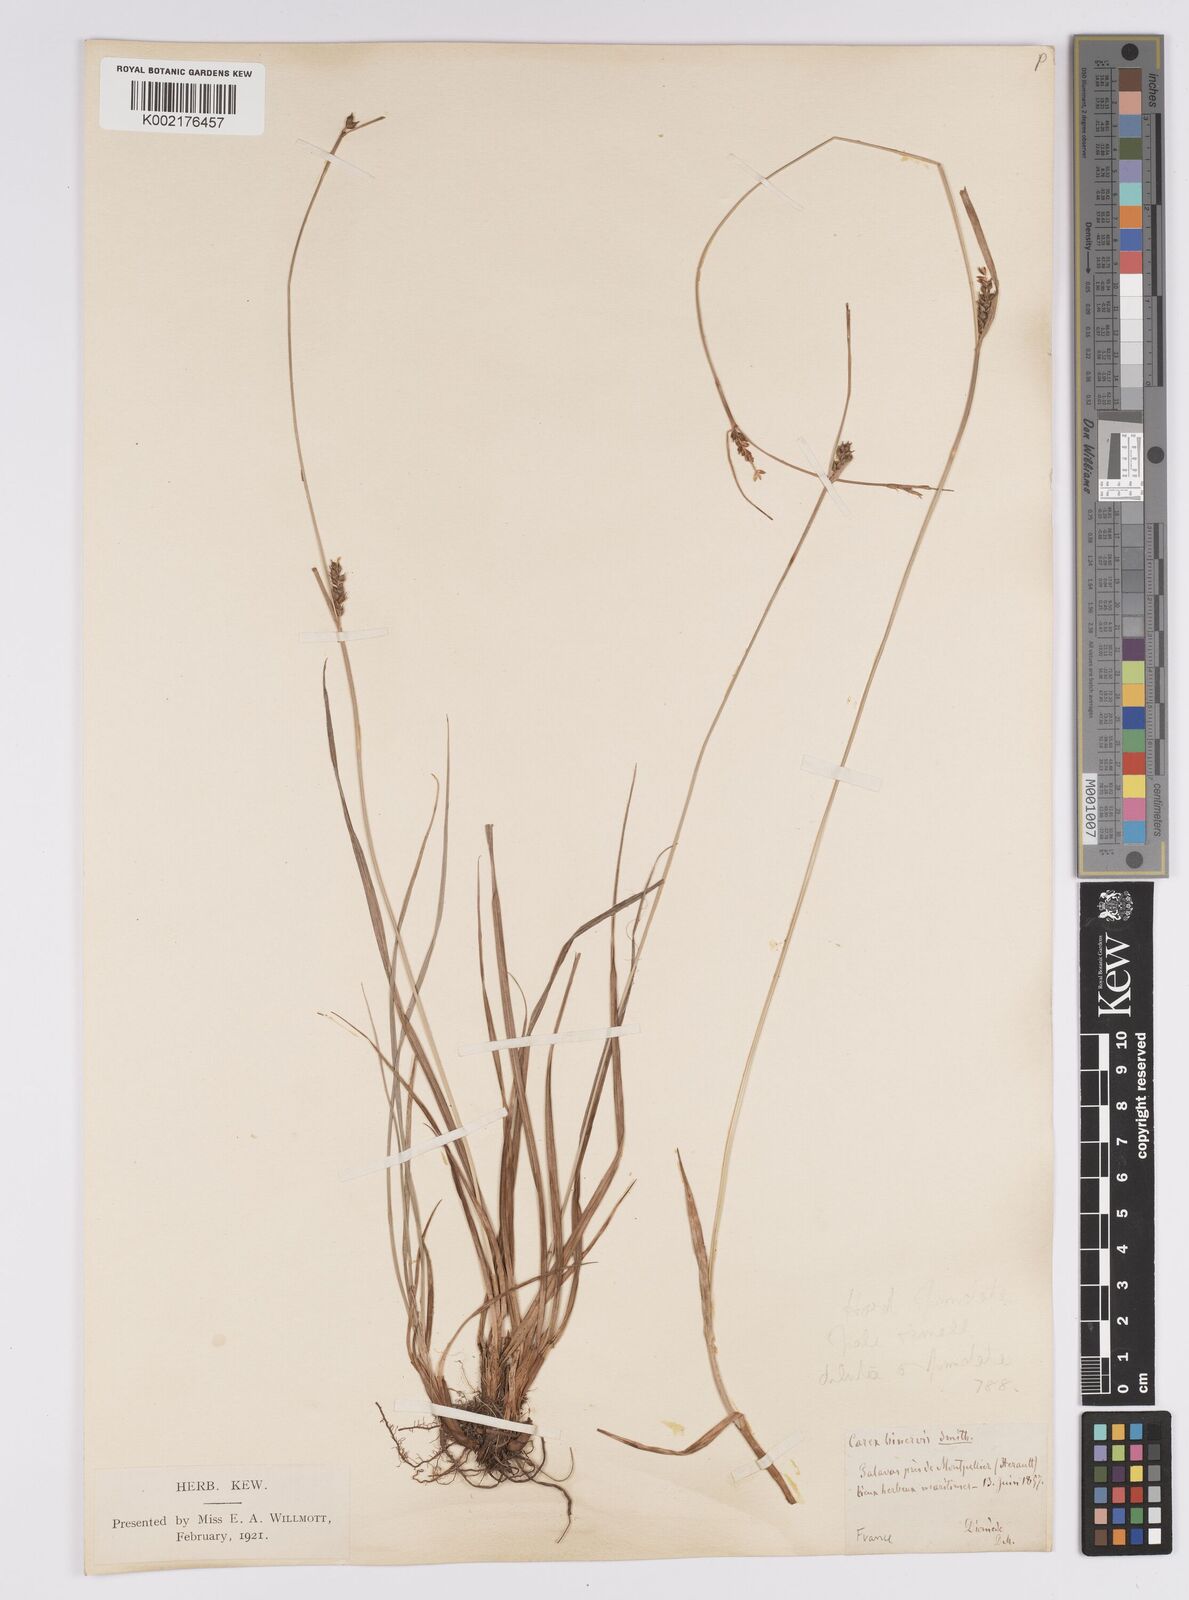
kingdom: Plantae
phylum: Tracheophyta
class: Liliopsida
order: Poales
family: Cyperaceae
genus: Carex
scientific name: Carex distans
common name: Distant sedge
